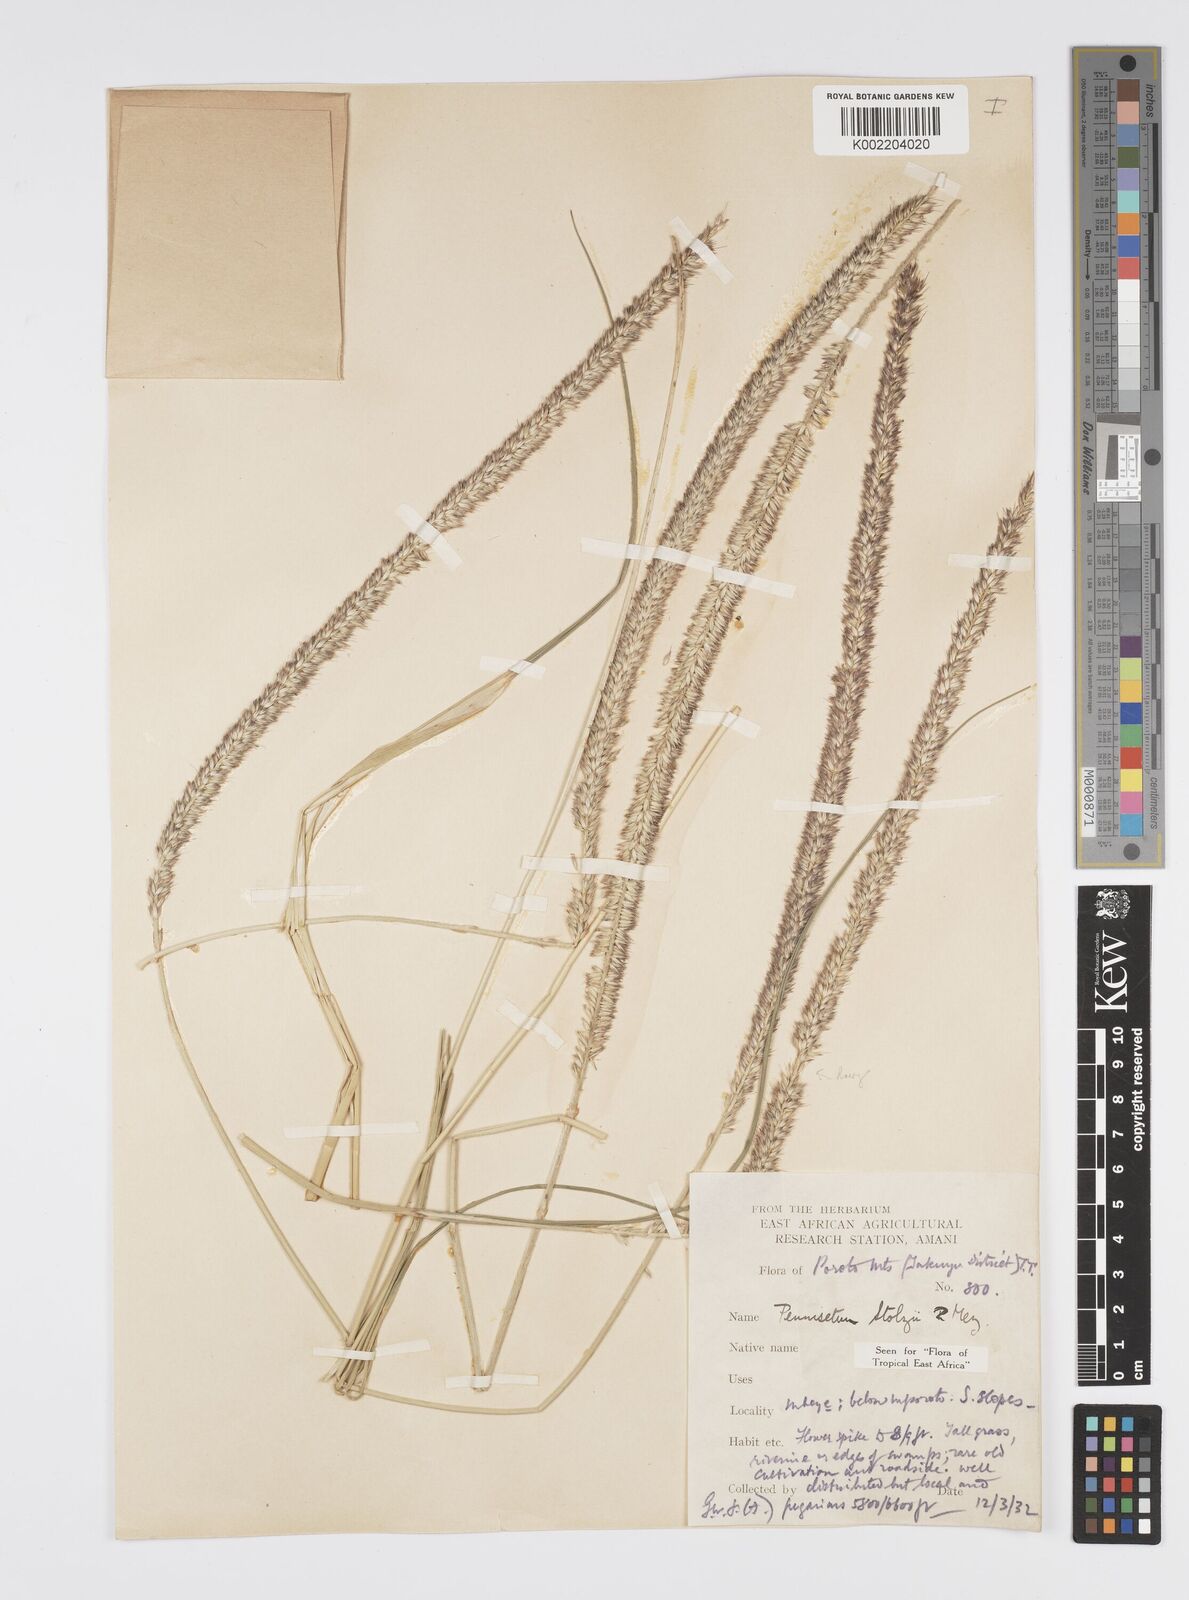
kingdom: Plantae
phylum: Tracheophyta
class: Liliopsida
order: Poales
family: Poaceae
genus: Cenchrus
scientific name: Cenchrus caudatus
